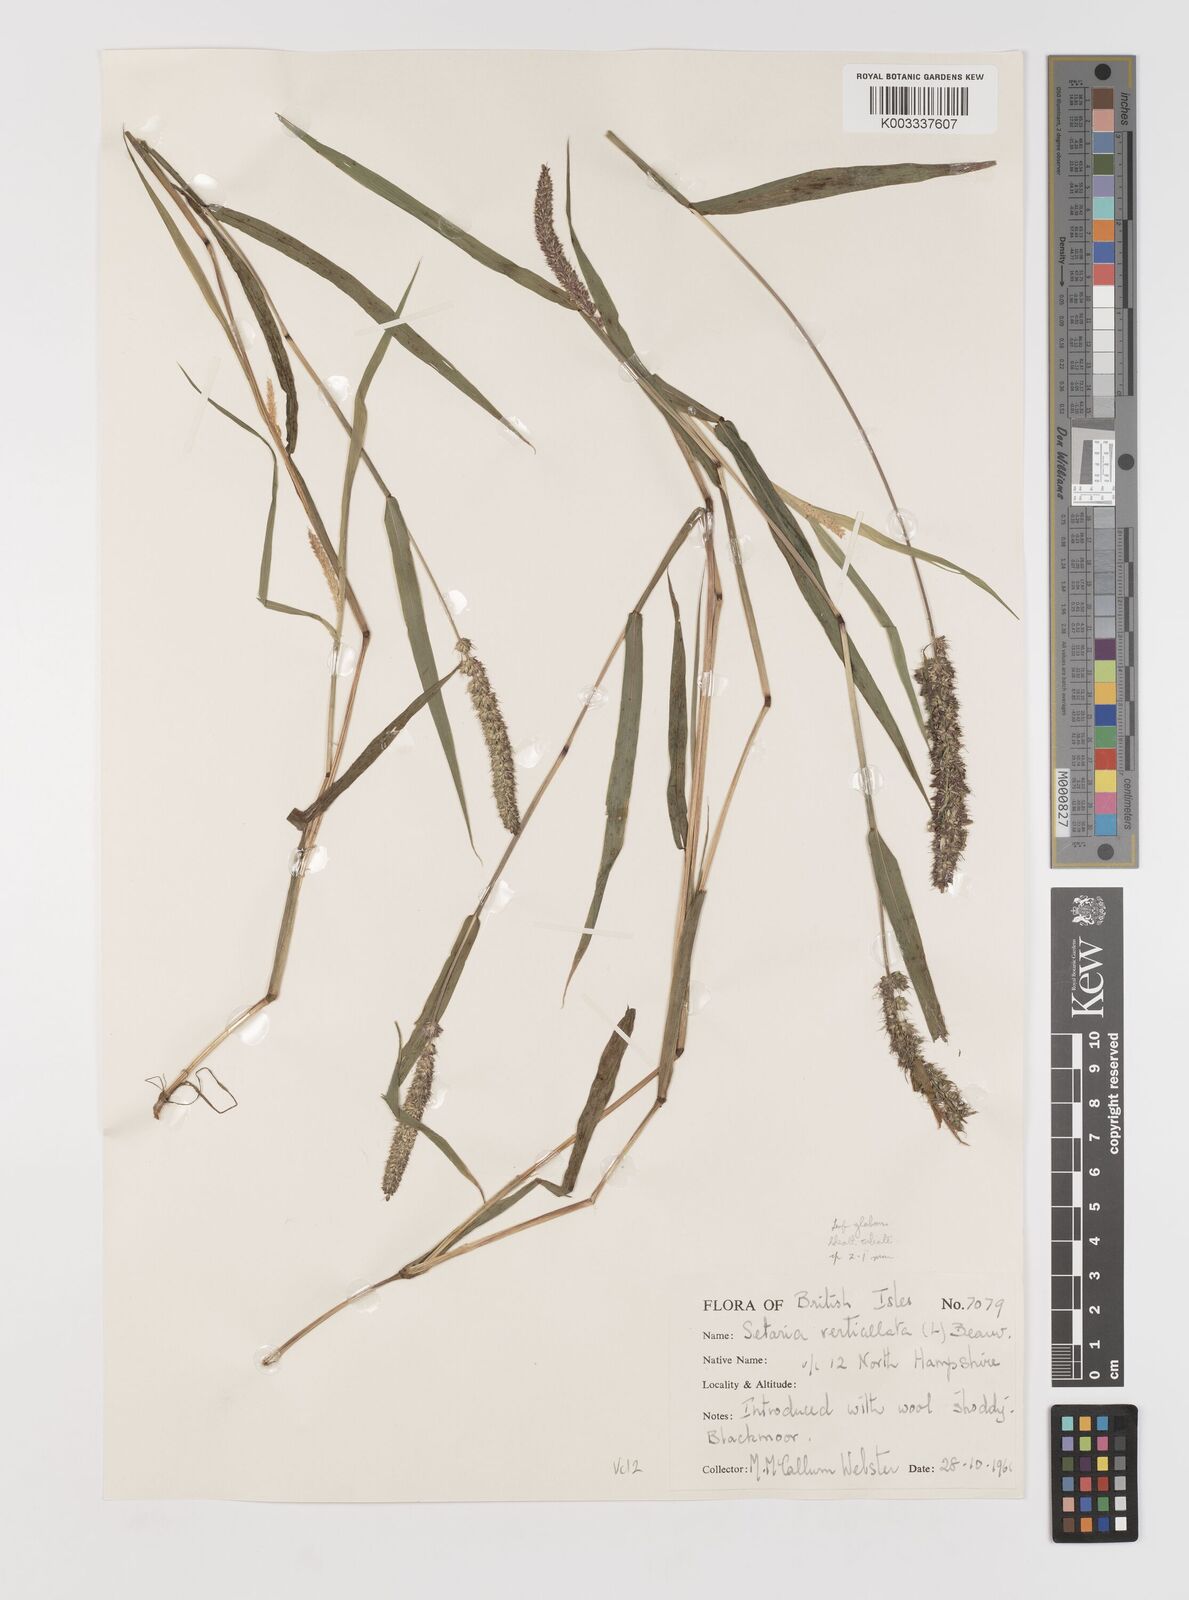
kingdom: Plantae
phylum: Tracheophyta
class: Liliopsida
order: Poales
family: Poaceae
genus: Setaria
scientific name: Setaria verticillata
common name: Hooked bristlegrass
